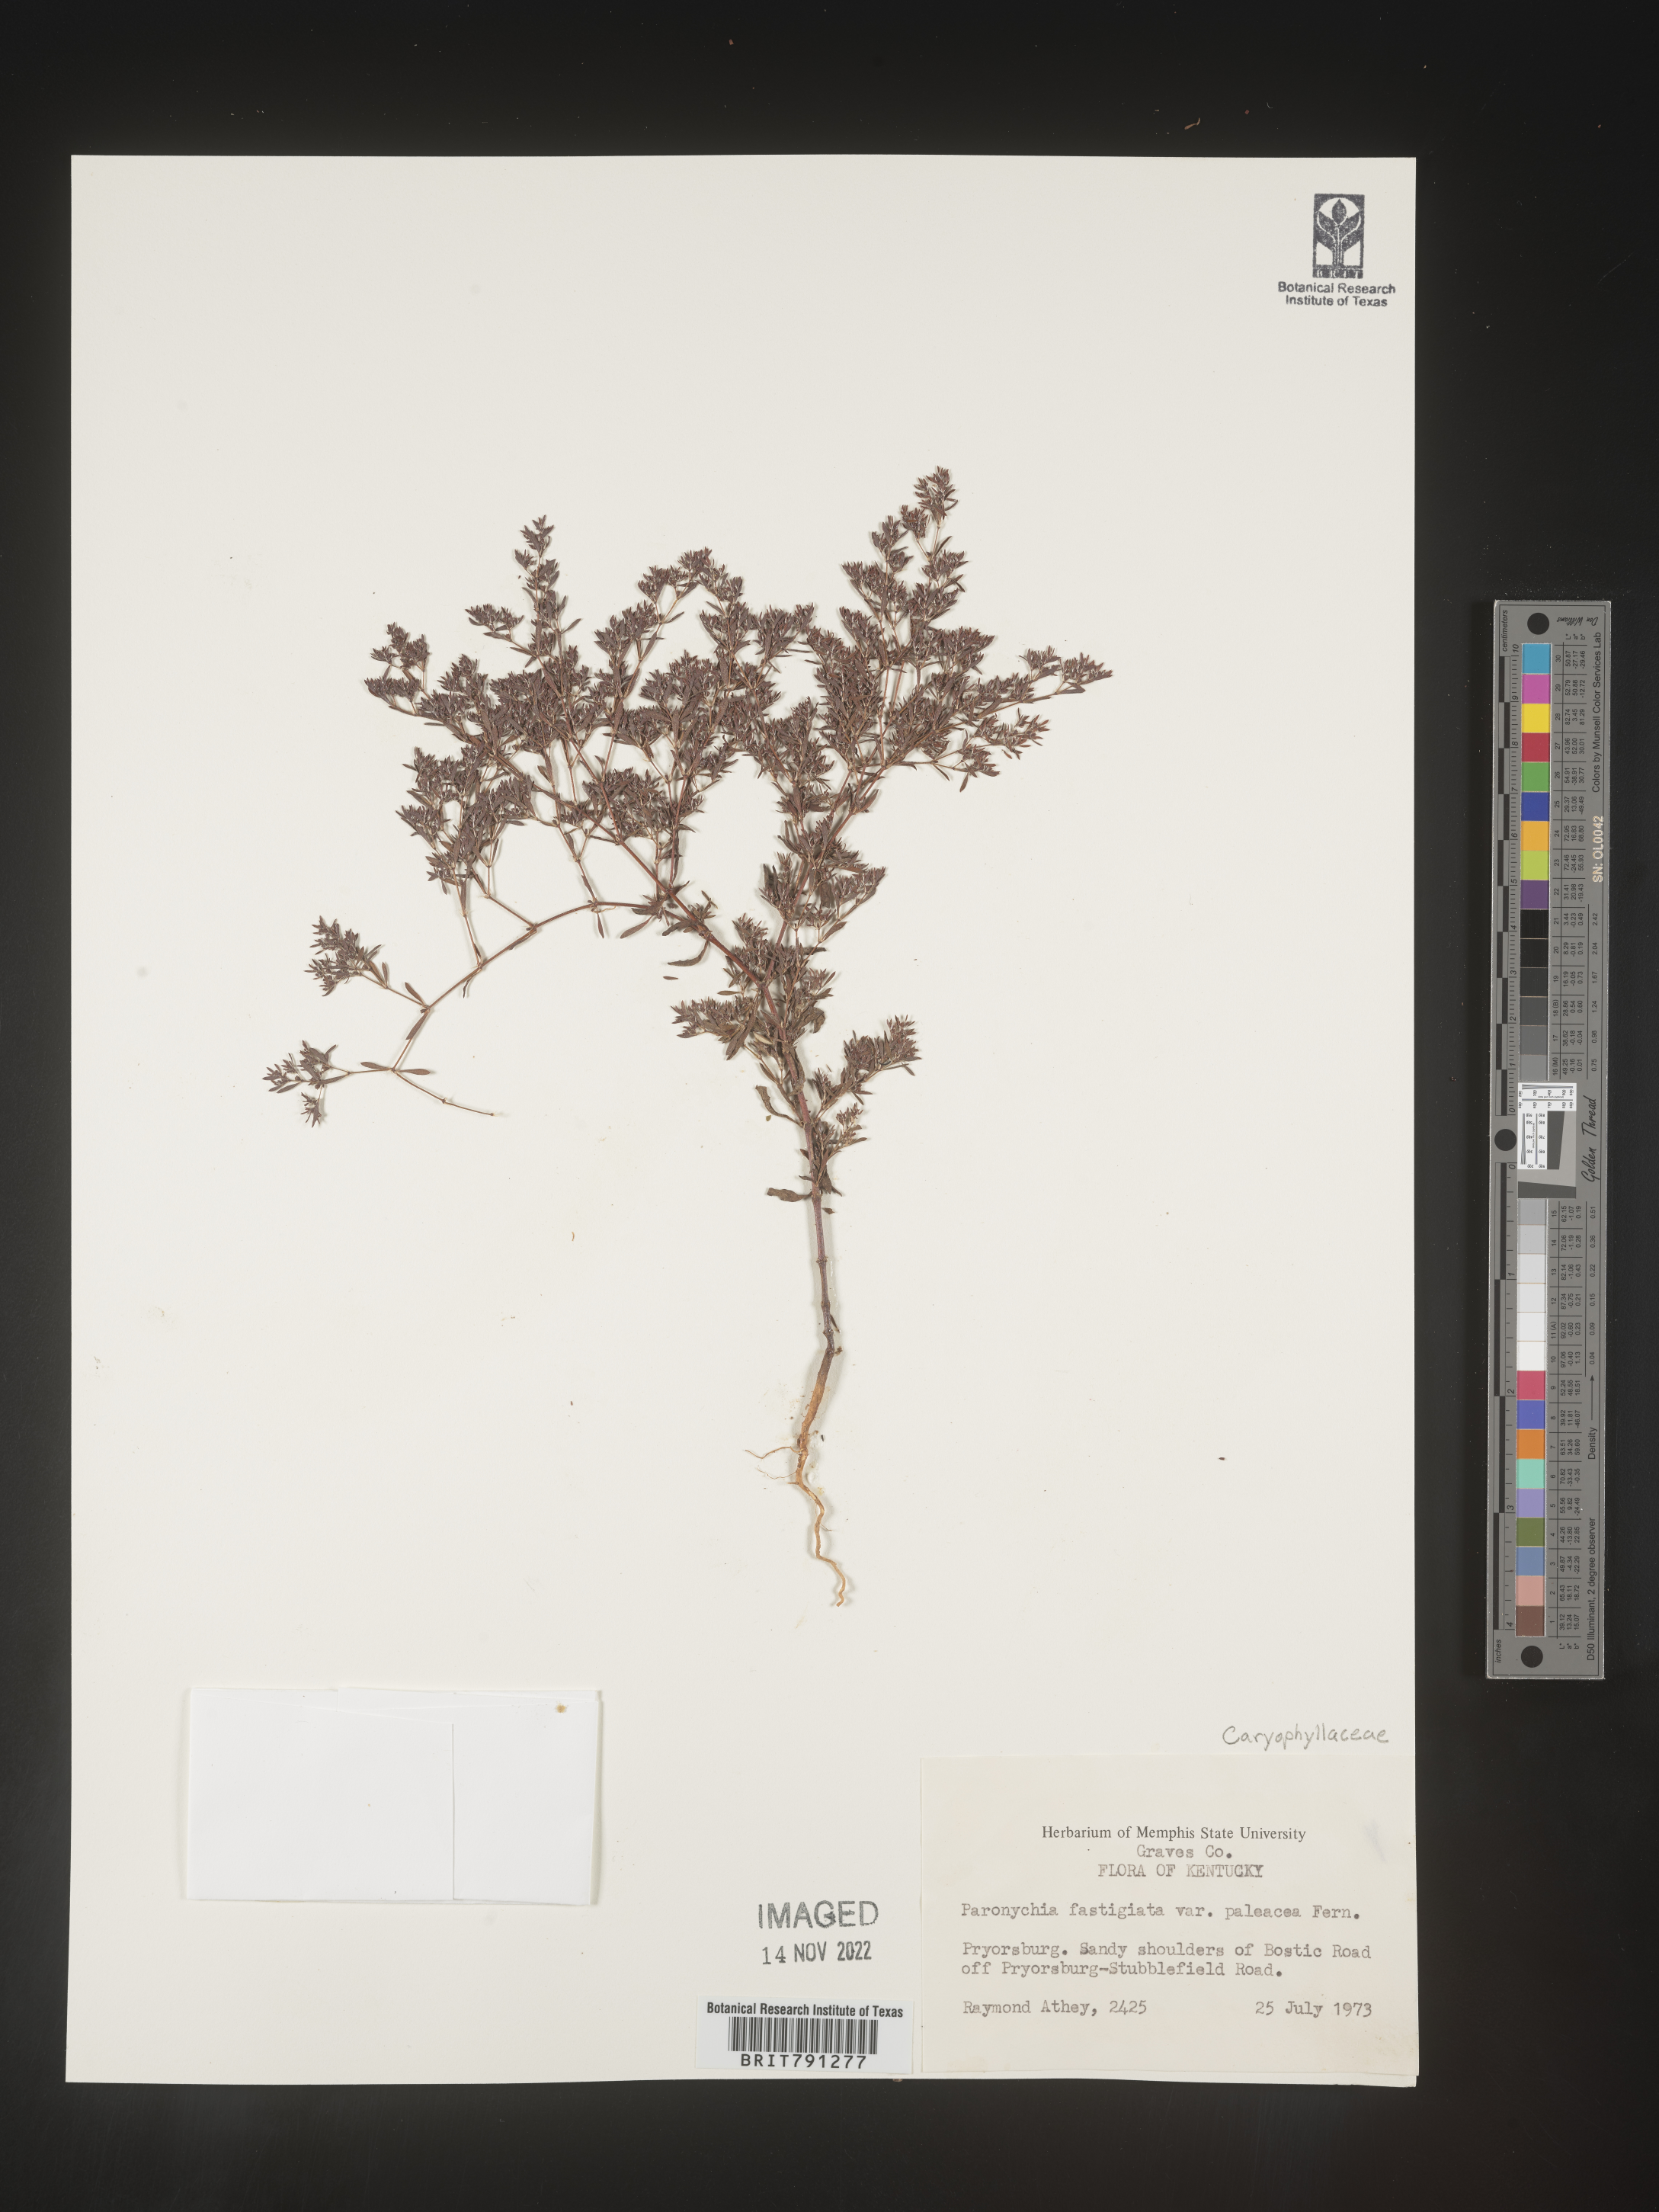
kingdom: Plantae
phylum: Tracheophyta
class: Magnoliopsida
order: Caryophyllales
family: Caryophyllaceae
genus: Paronychia
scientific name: Paronychia fastigiata
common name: Branching forked whitlow-wort
